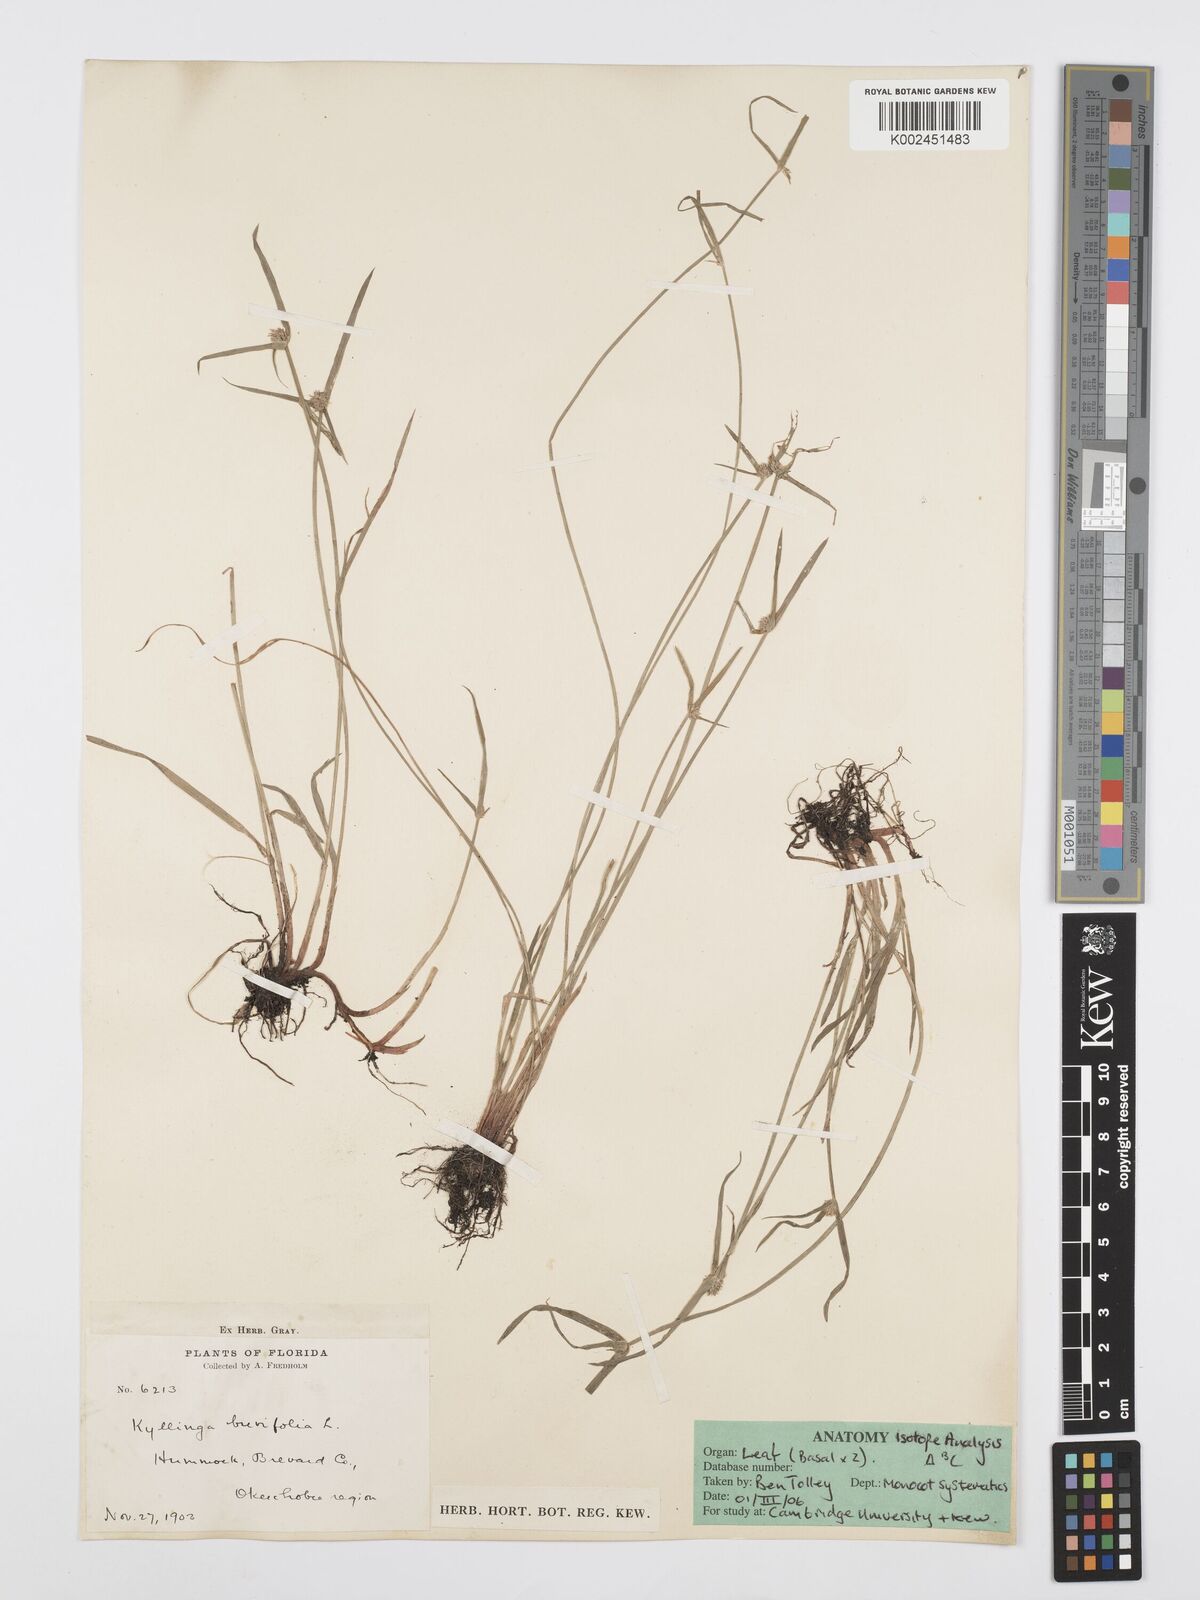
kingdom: Plantae
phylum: Tracheophyta
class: Liliopsida
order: Poales
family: Cyperaceae
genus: Cyperus
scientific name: Cyperus brevifolius
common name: Globe kyllinga
